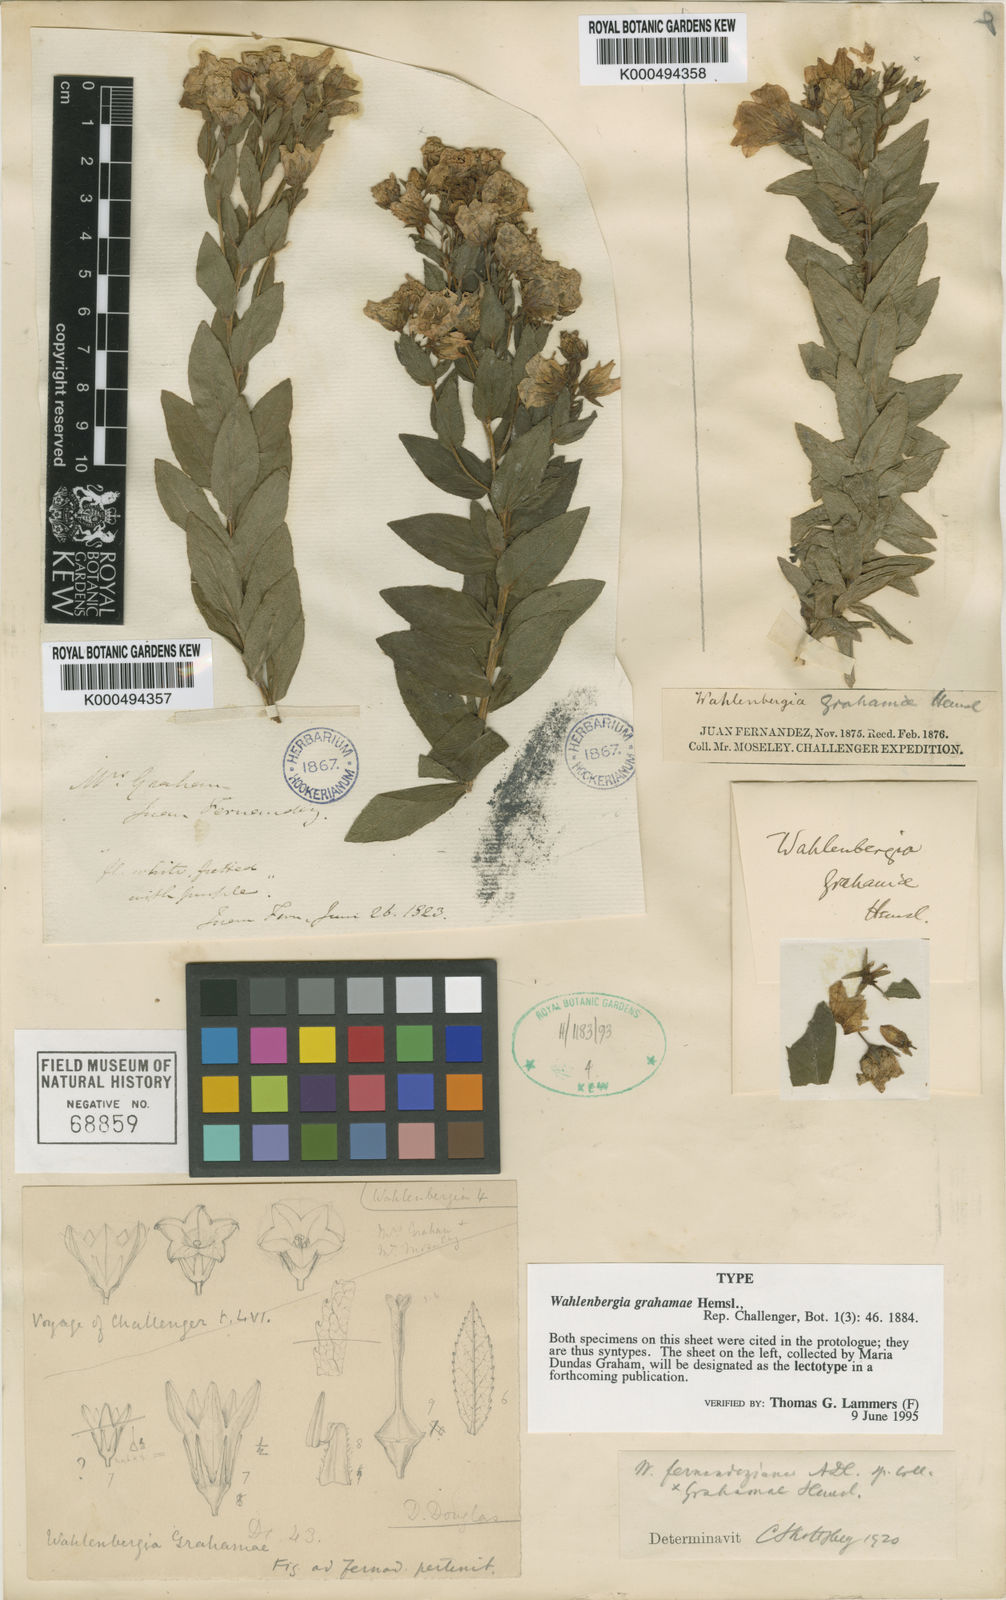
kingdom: Plantae
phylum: Tracheophyta
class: Magnoliopsida
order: Asterales
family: Campanulaceae
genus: Wahlenbergia
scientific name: Wahlenbergia grahamiae
